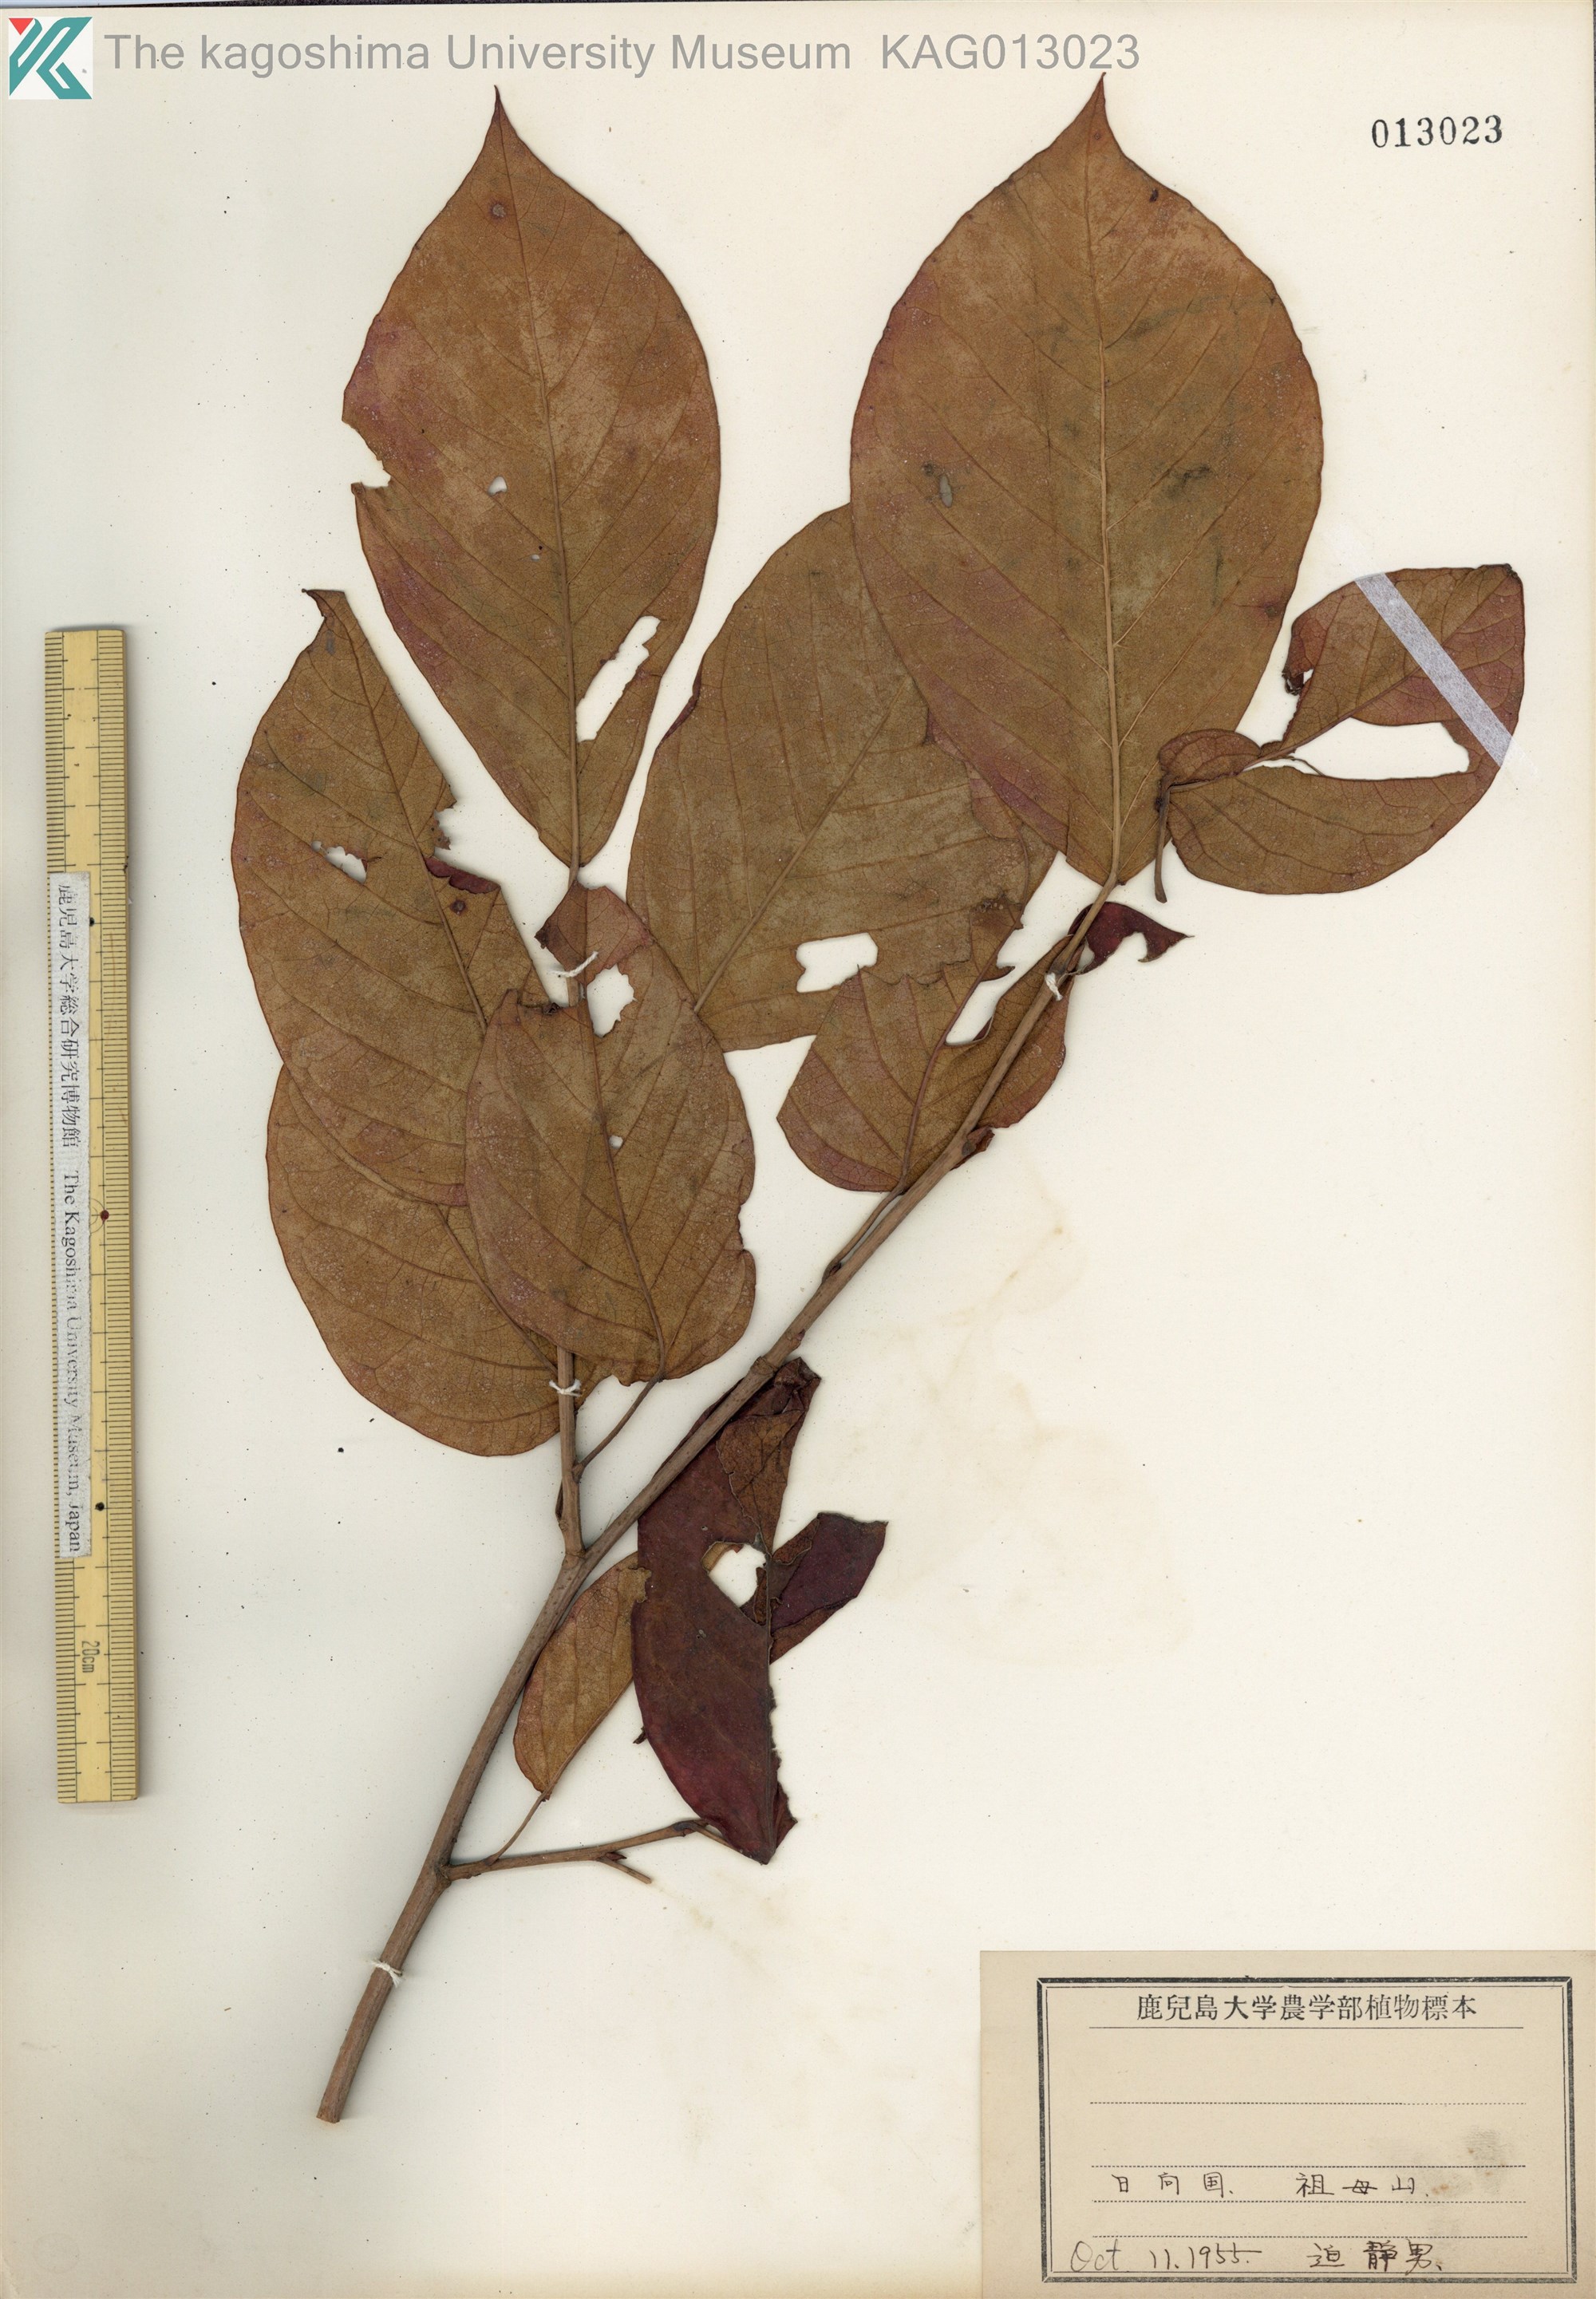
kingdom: Plantae
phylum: Tracheophyta
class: Magnoliopsida
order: Malpighiales
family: Euphorbiaceae
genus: Neoshirakia
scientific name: Neoshirakia japonica
